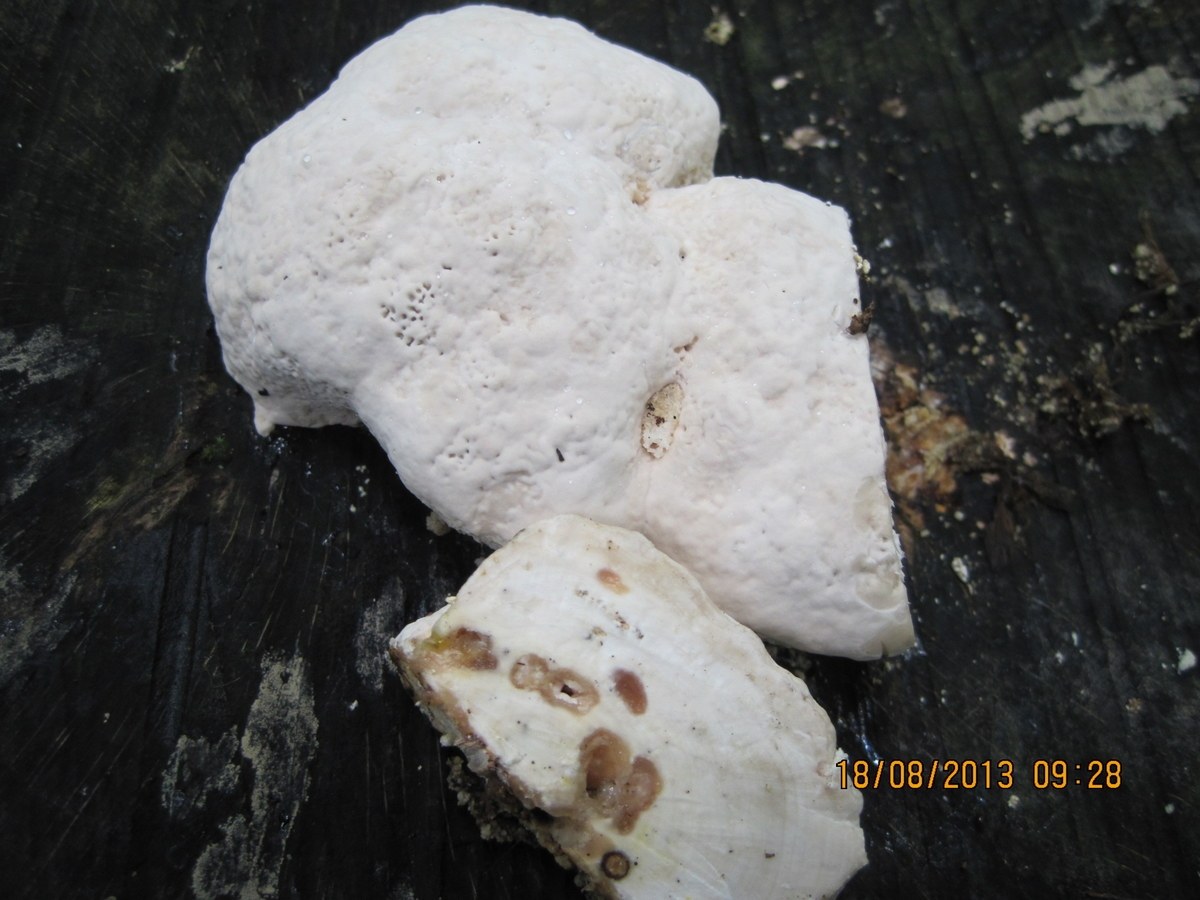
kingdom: Fungi
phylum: Basidiomycota
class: Agaricomycetes
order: Polyporales
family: Incrustoporiaceae
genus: Tyromyces
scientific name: Tyromyces lacteus
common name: mælkehvid kødporesvamp
